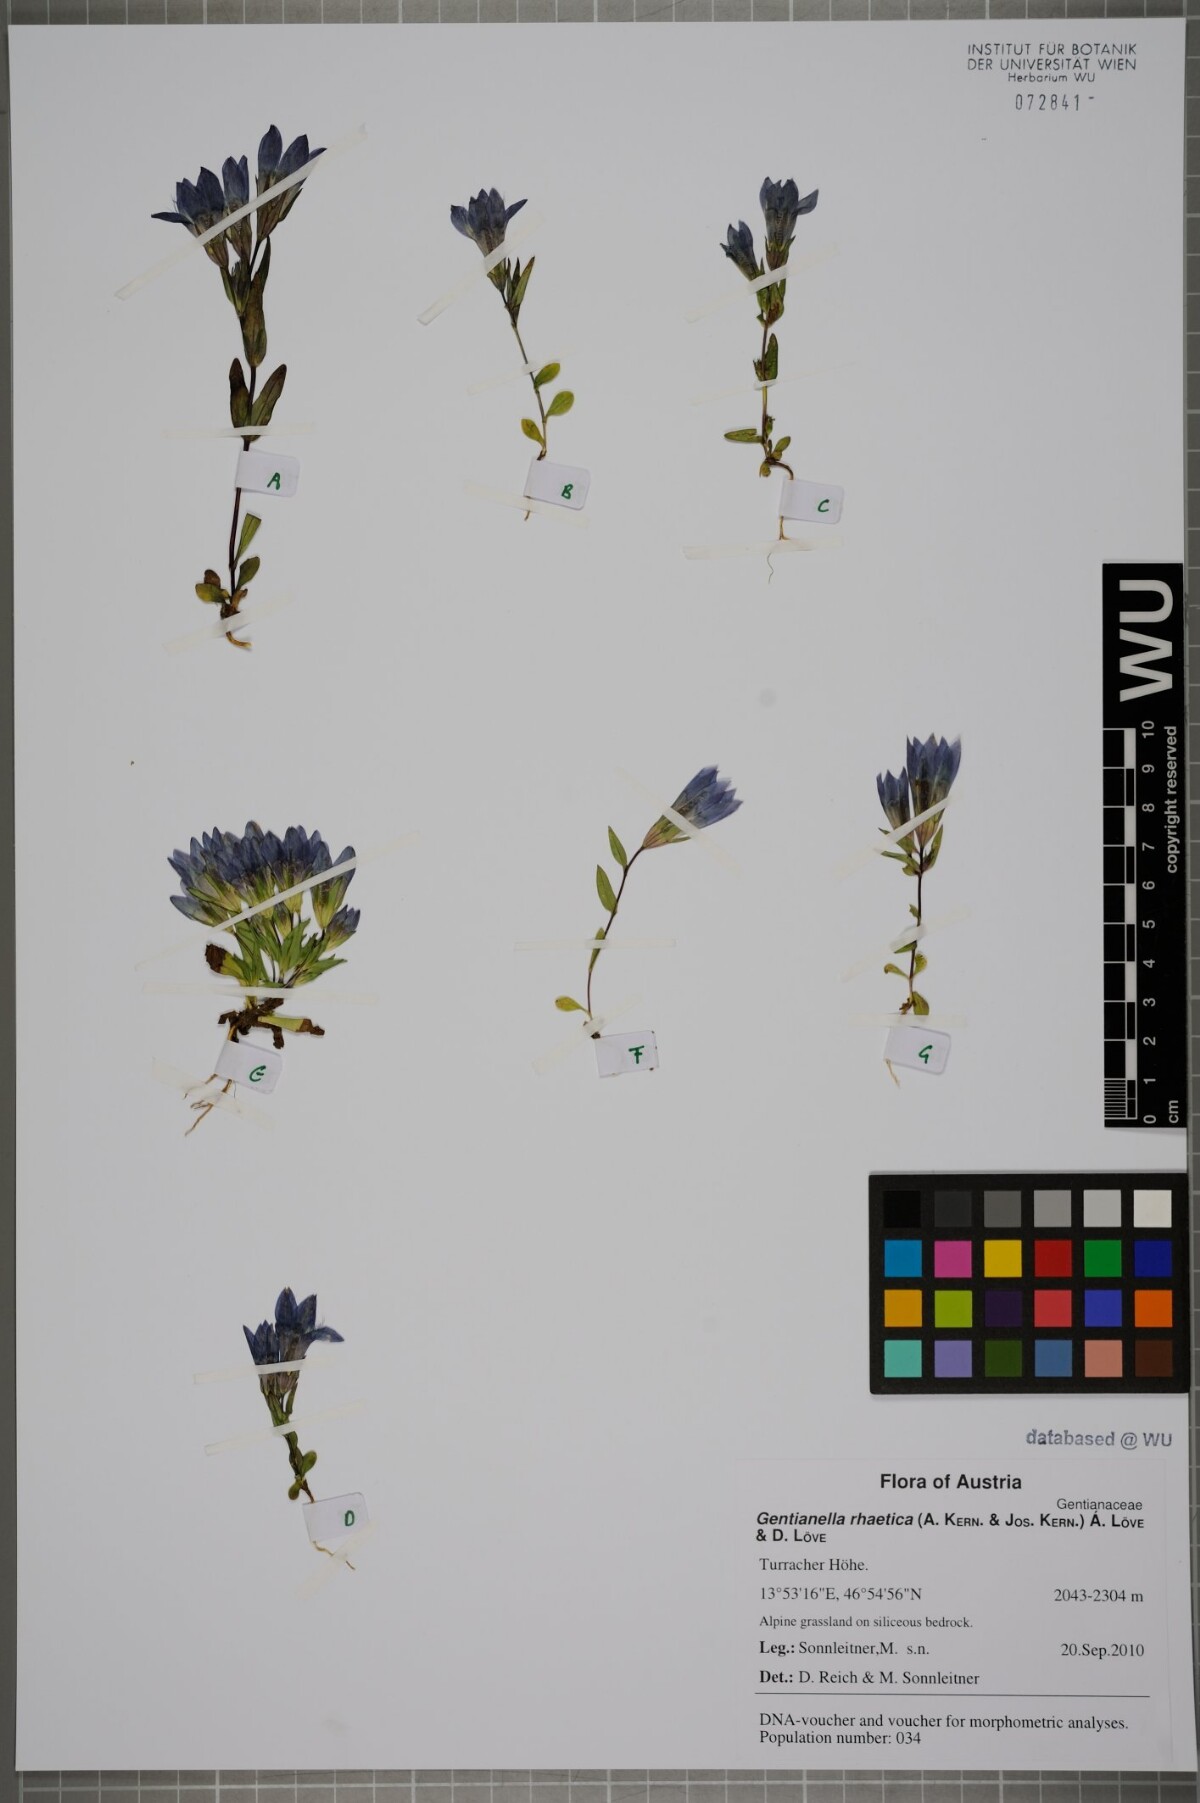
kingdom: Plantae
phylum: Tracheophyta
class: Magnoliopsida
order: Gentianales
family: Gentianaceae
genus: Gentianella
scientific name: Gentianella rhaetica
